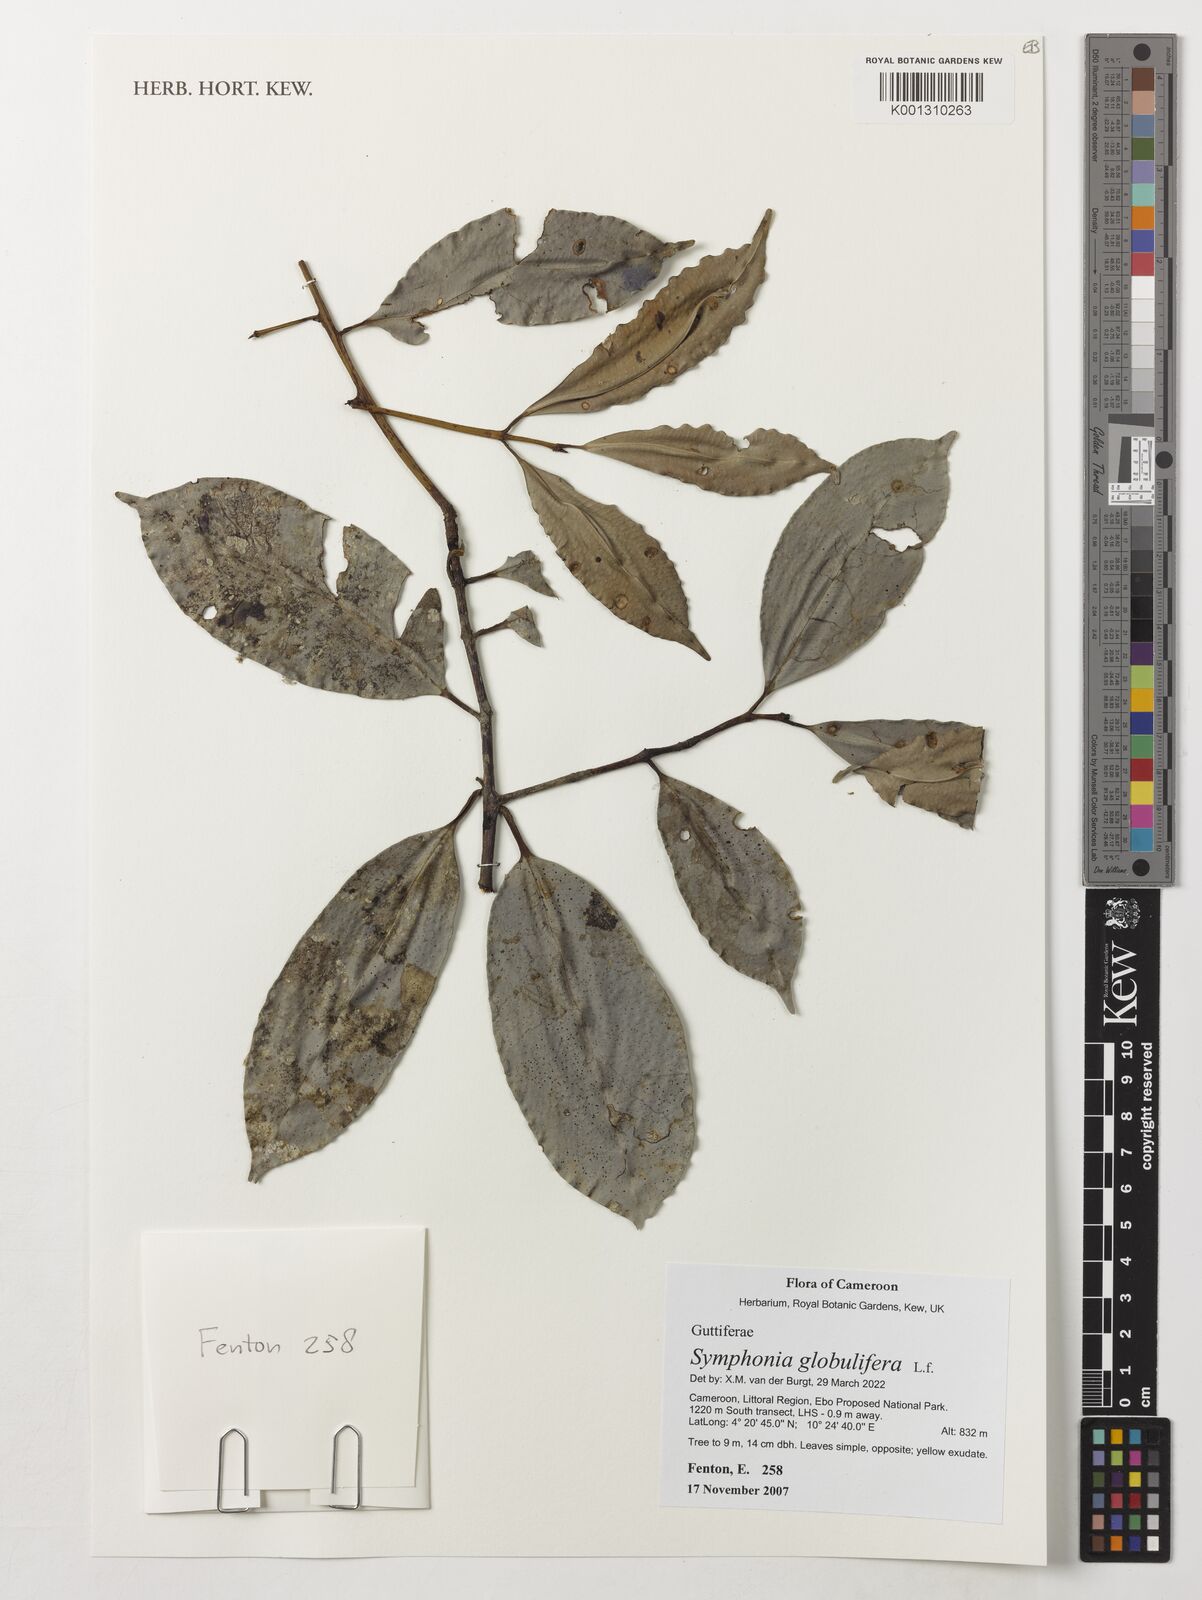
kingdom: Plantae
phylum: Tracheophyta
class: Magnoliopsida
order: Malpighiales
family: Clusiaceae
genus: Symphonia
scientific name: Symphonia globulifera
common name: Boarwood
